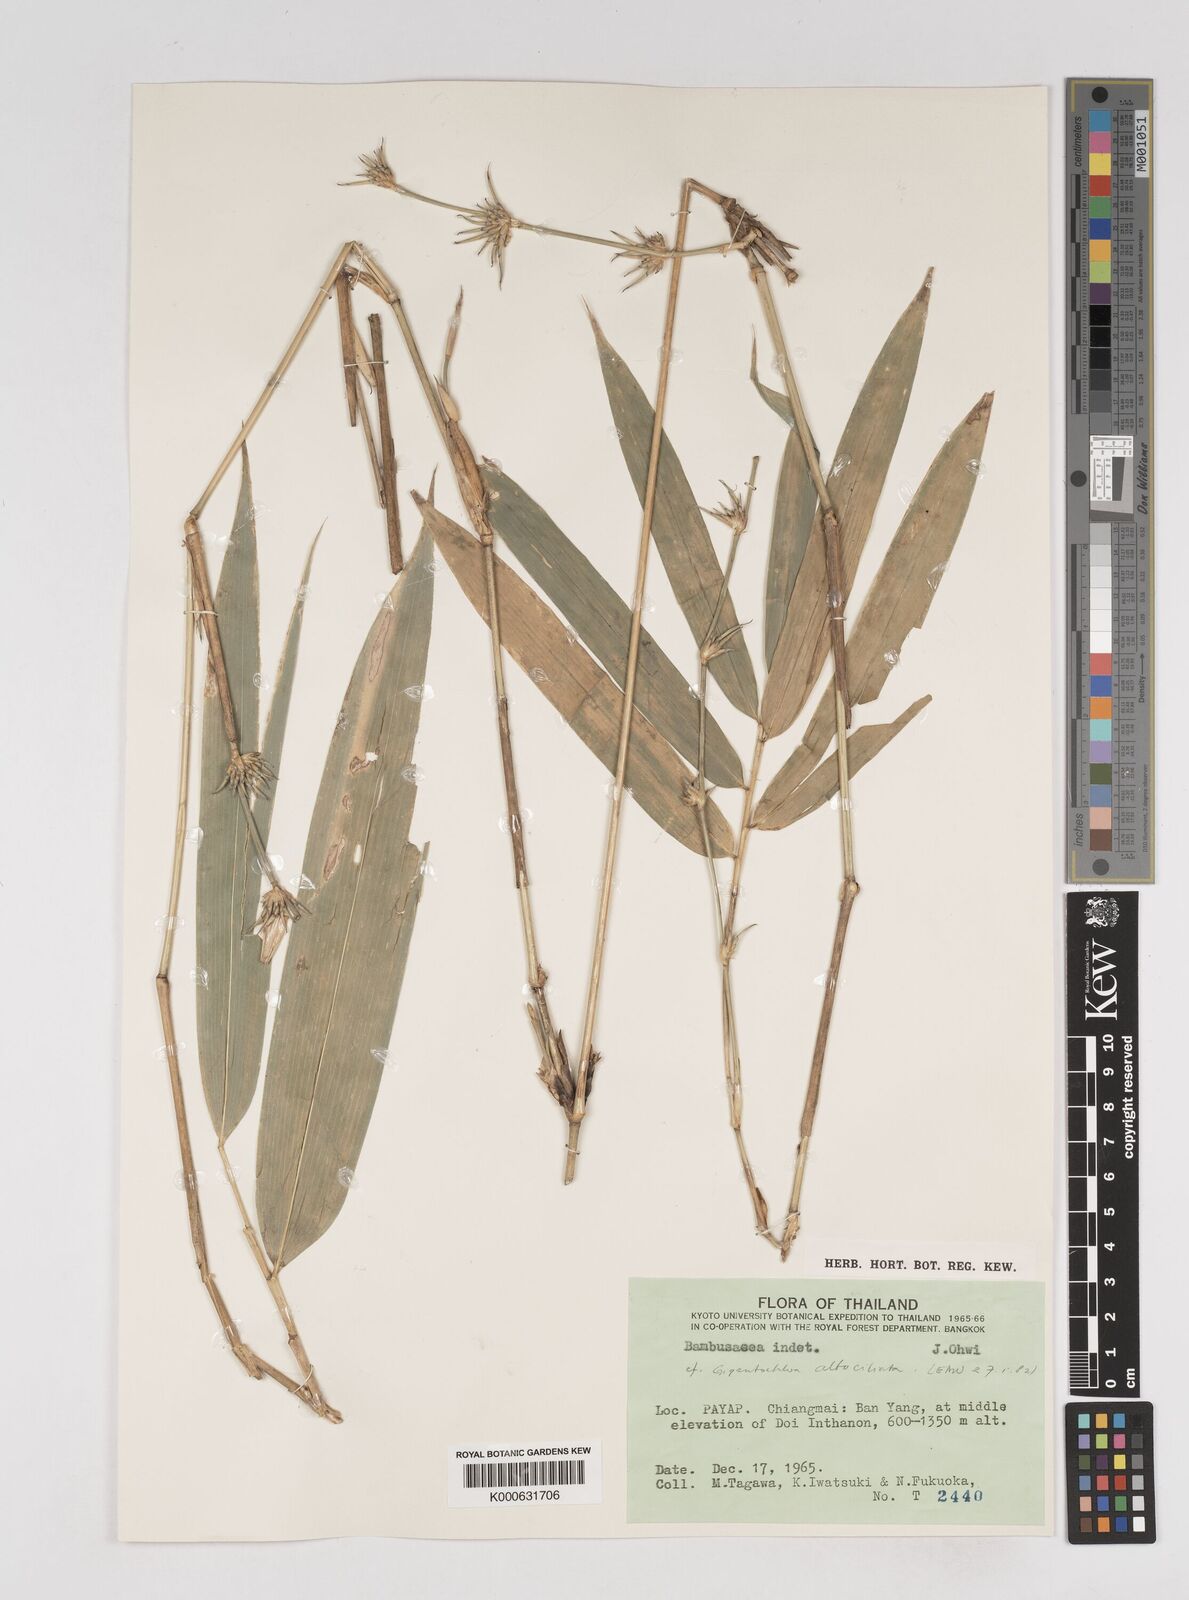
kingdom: Plantae
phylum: Tracheophyta
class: Liliopsida
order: Poales
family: Poaceae
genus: Gigantochloa
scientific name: Gigantochloa albociliata
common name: White-fringe gigantochloa
